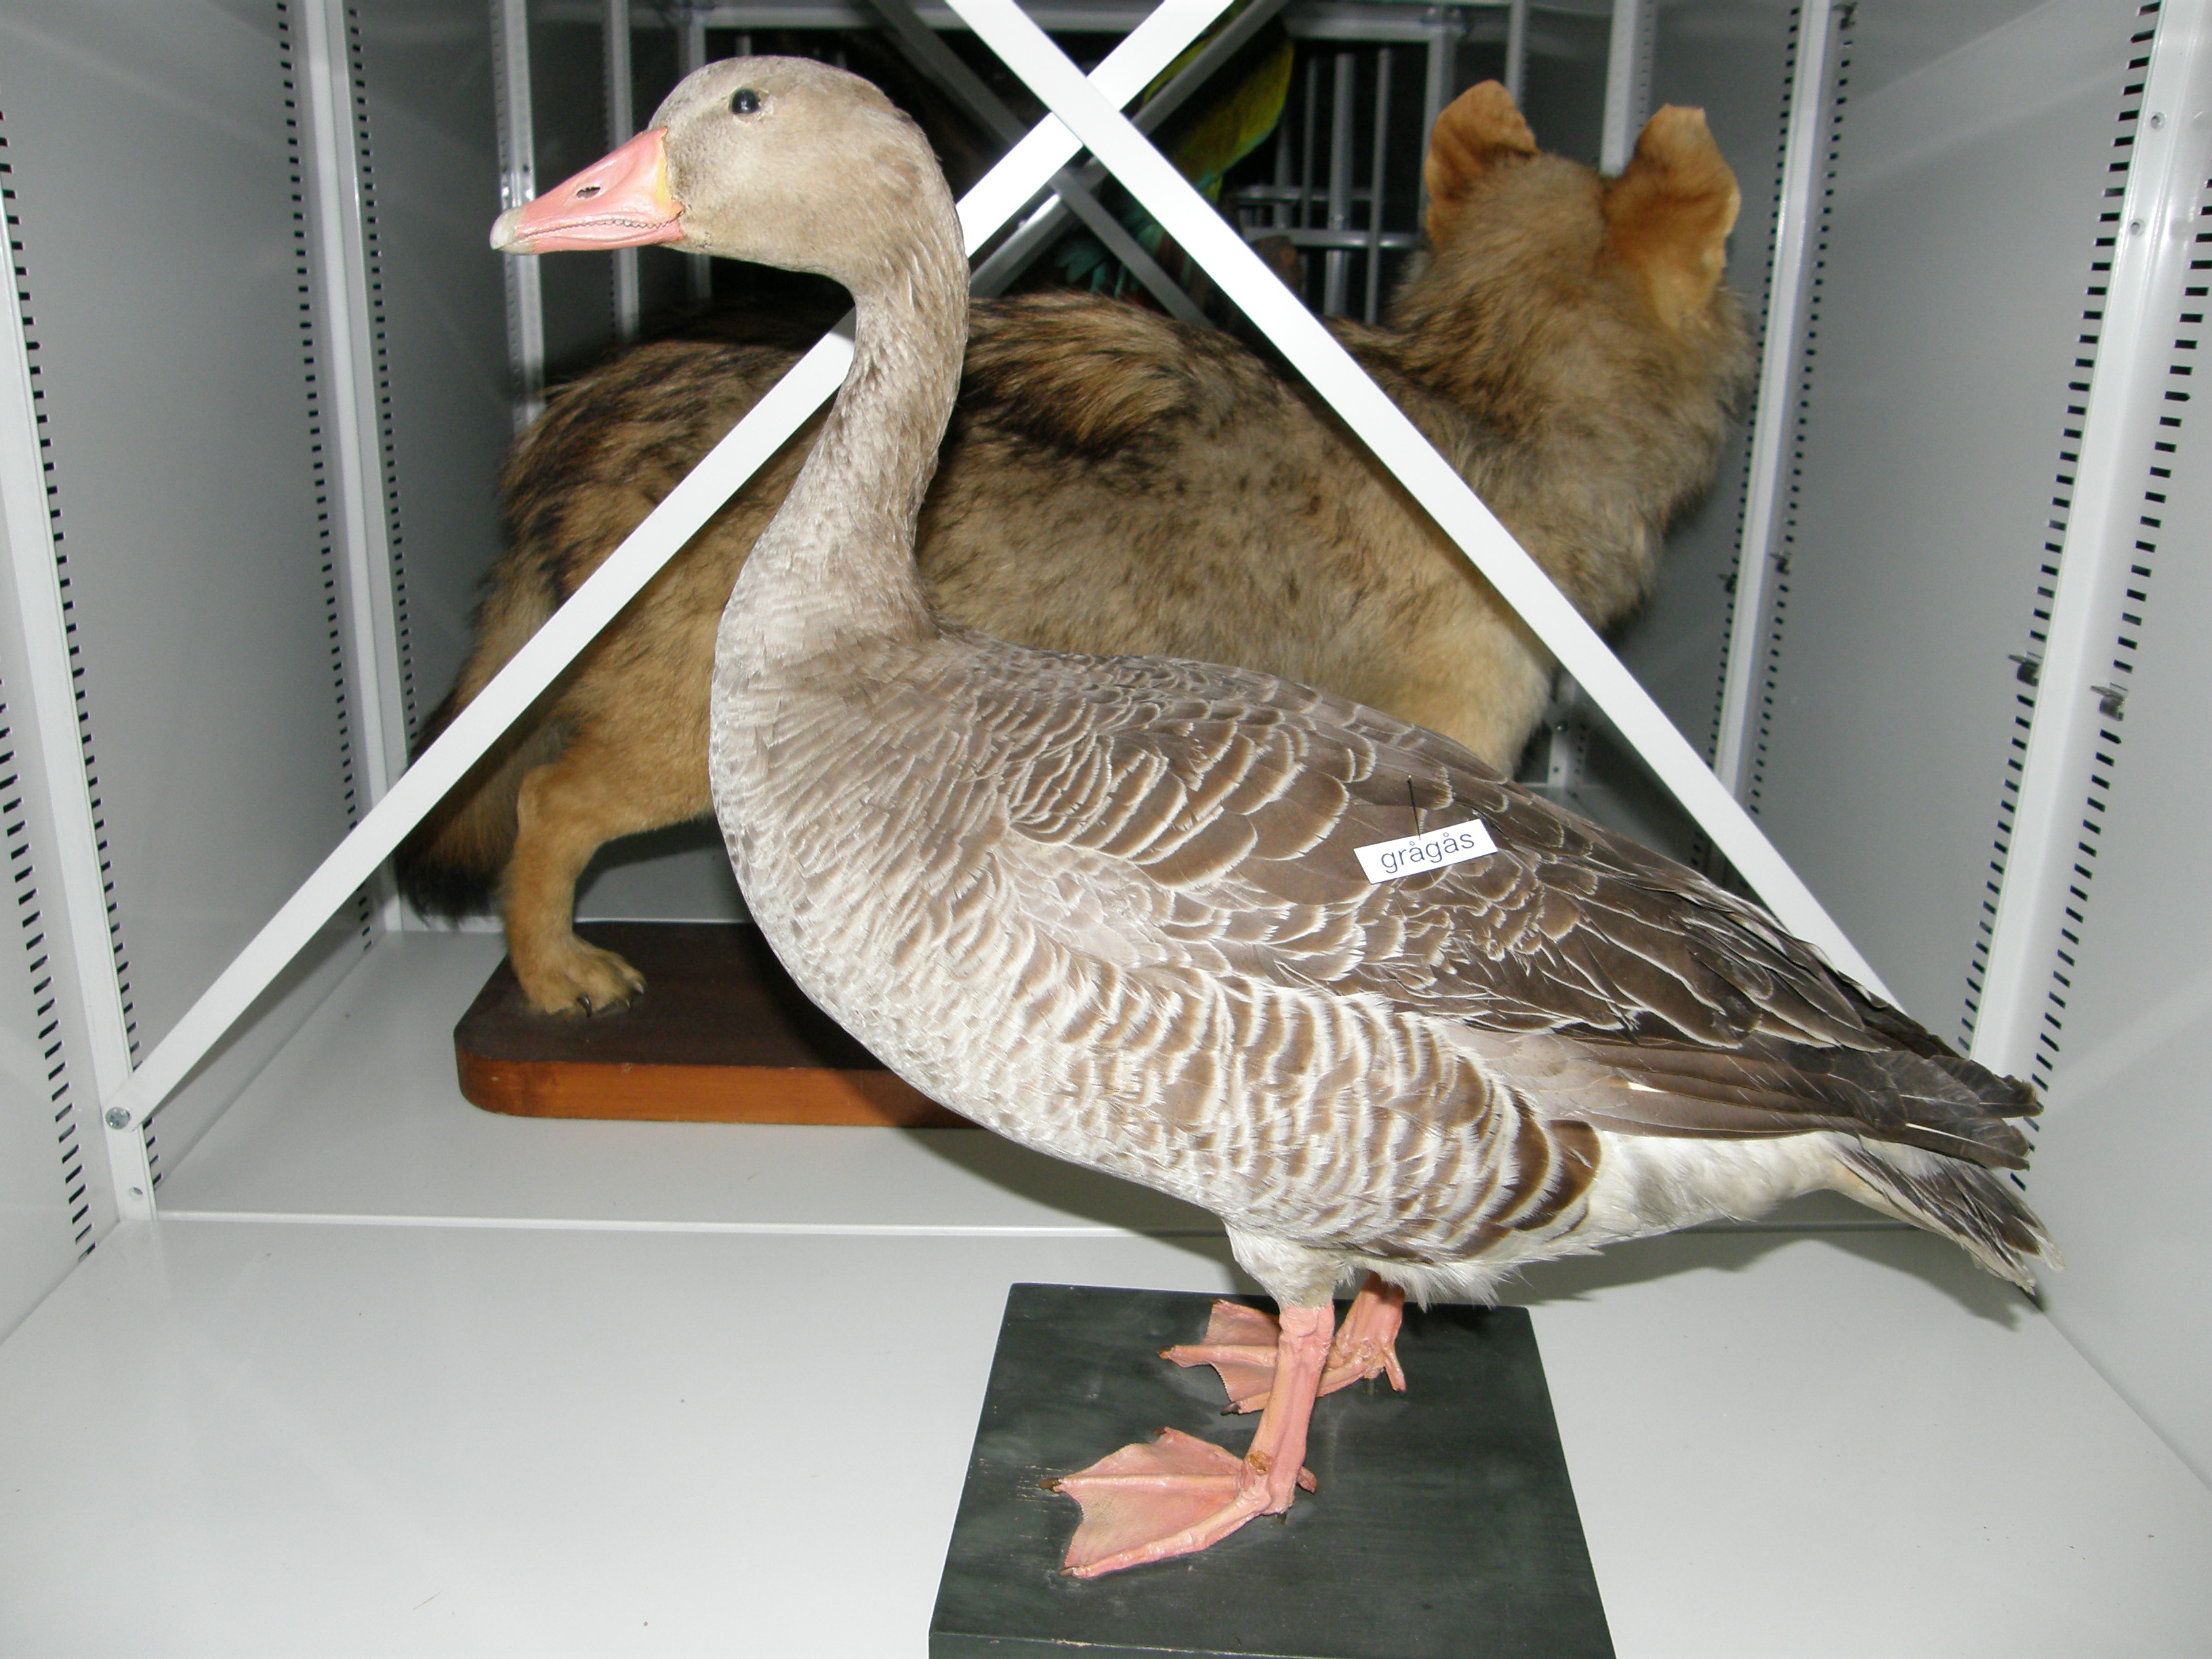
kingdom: Animalia
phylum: Chordata
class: Aves
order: Anseriformes
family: Anatidae
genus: Anser
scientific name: Anser anser
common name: Greylag goose
